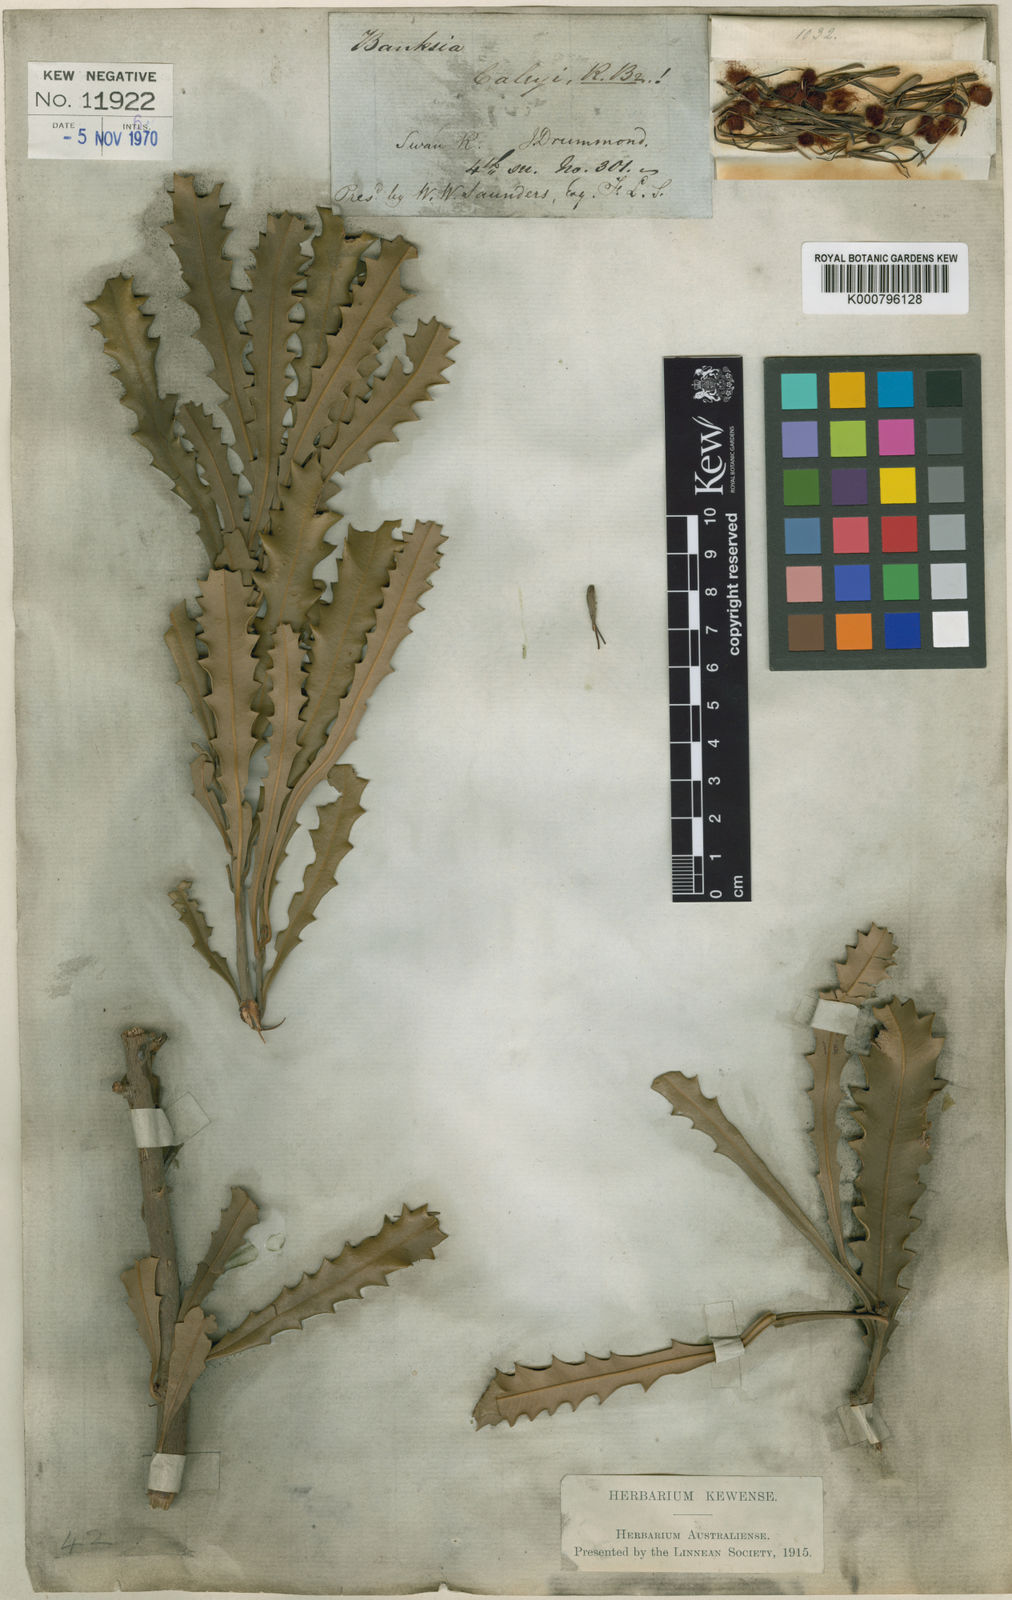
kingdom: Plantae
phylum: Tracheophyta
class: Magnoliopsida
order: Proteales
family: Proteaceae
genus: Banksia
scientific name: Banksia caleyi
